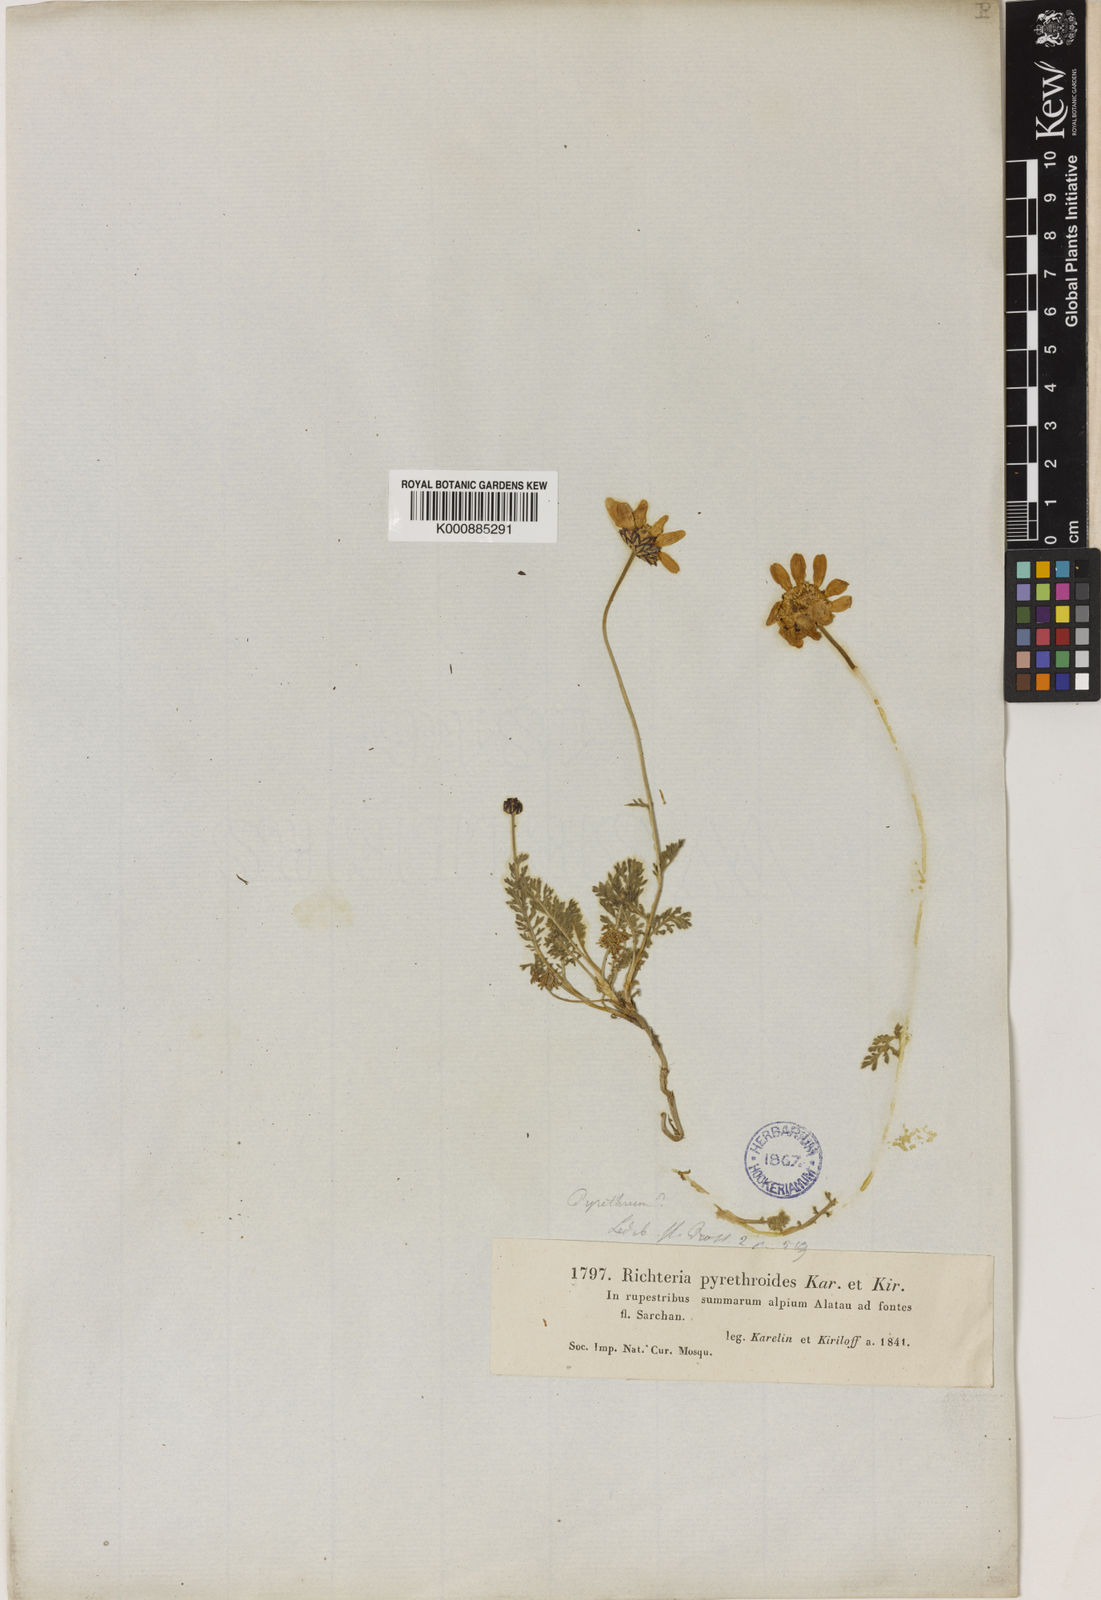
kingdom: Plantae
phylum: Tracheophyta
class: Magnoliopsida
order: Asterales
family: Asteraceae
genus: Richteria
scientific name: Richteria pyrethroides
